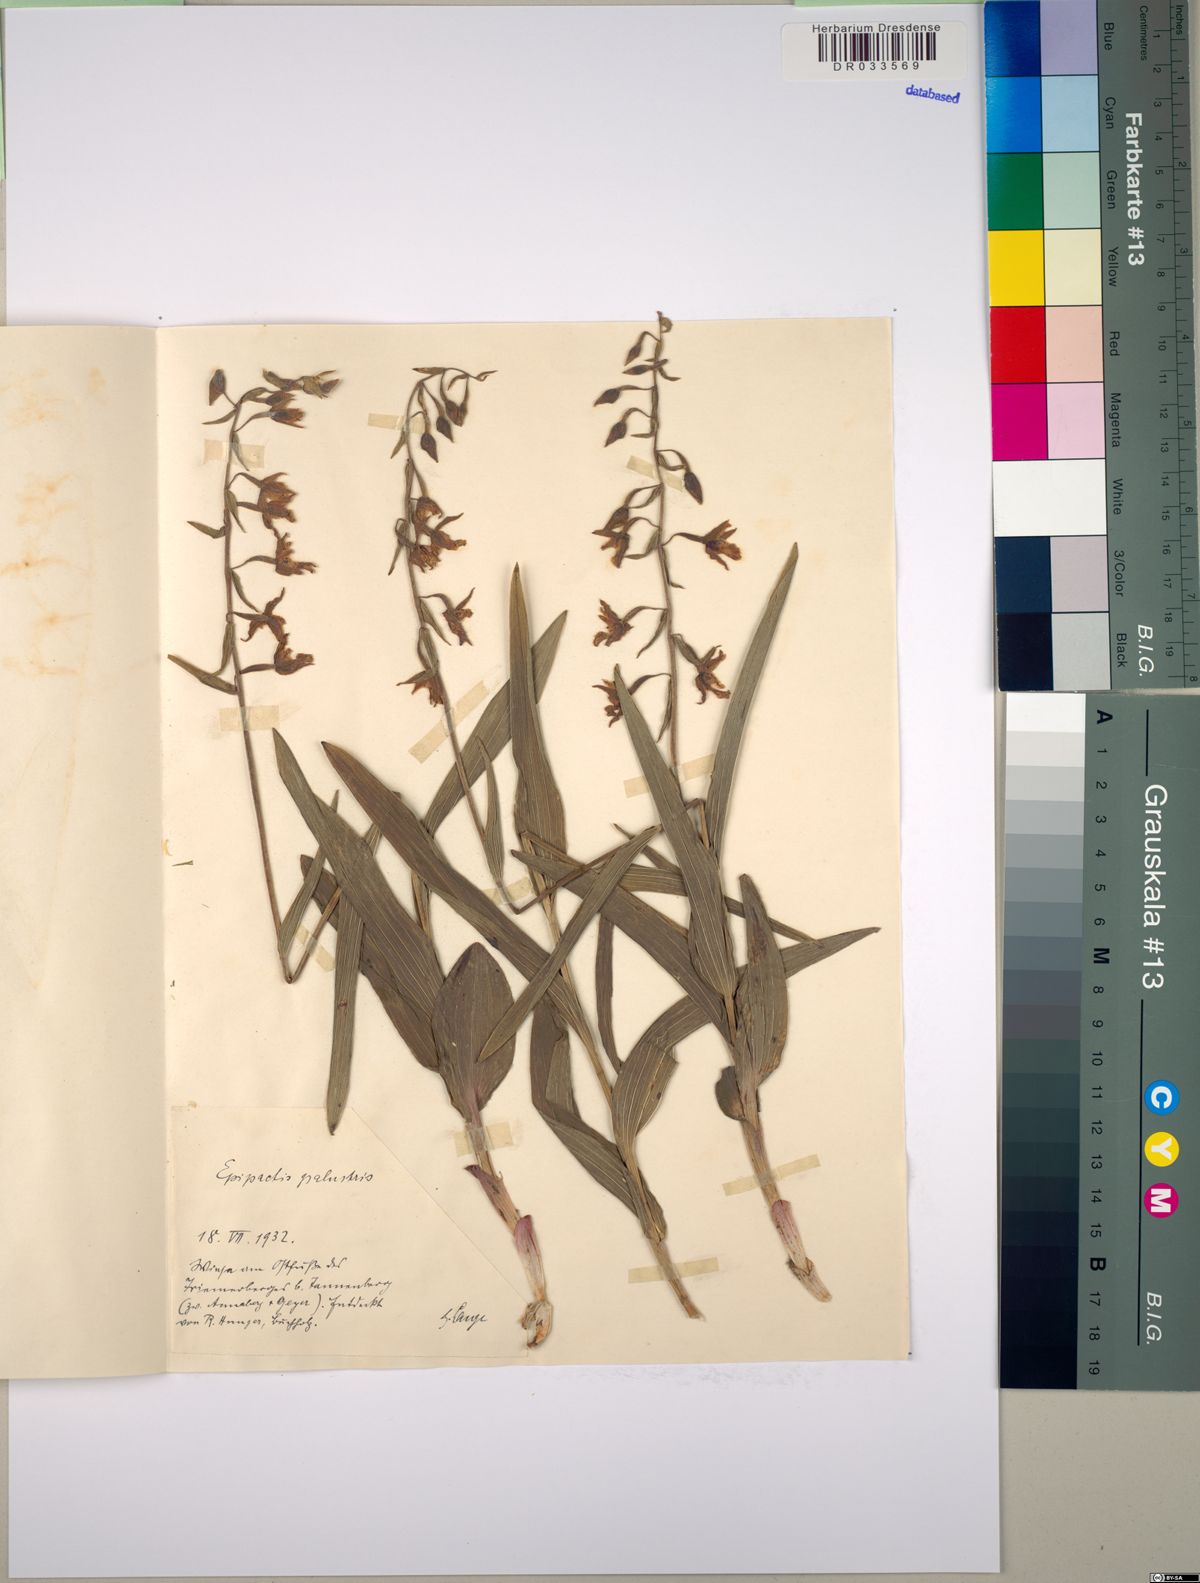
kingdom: Plantae
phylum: Tracheophyta
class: Liliopsida
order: Asparagales
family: Orchidaceae
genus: Epipactis
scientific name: Epipactis palustris
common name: Marsh helleborine
